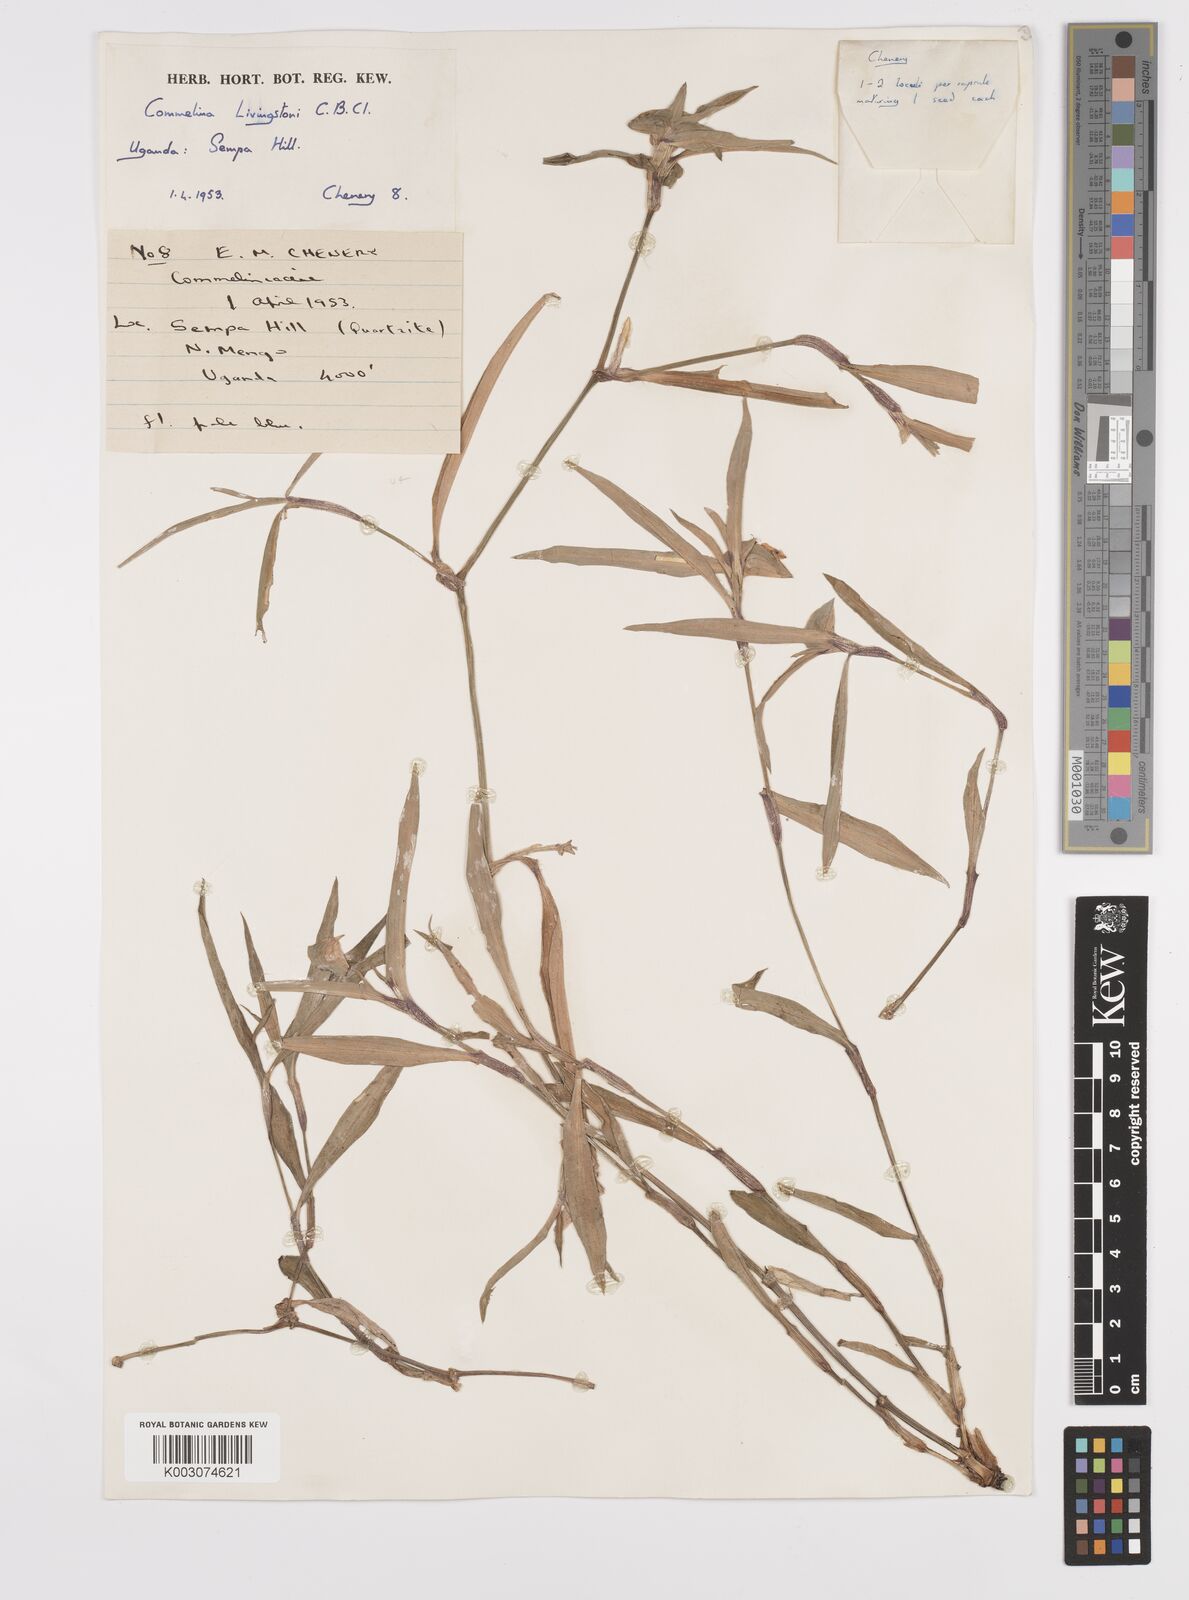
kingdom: Plantae
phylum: Tracheophyta
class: Liliopsida
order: Commelinales
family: Commelinaceae
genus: Commelina
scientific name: Commelina erecta
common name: Blousel blommetjie
